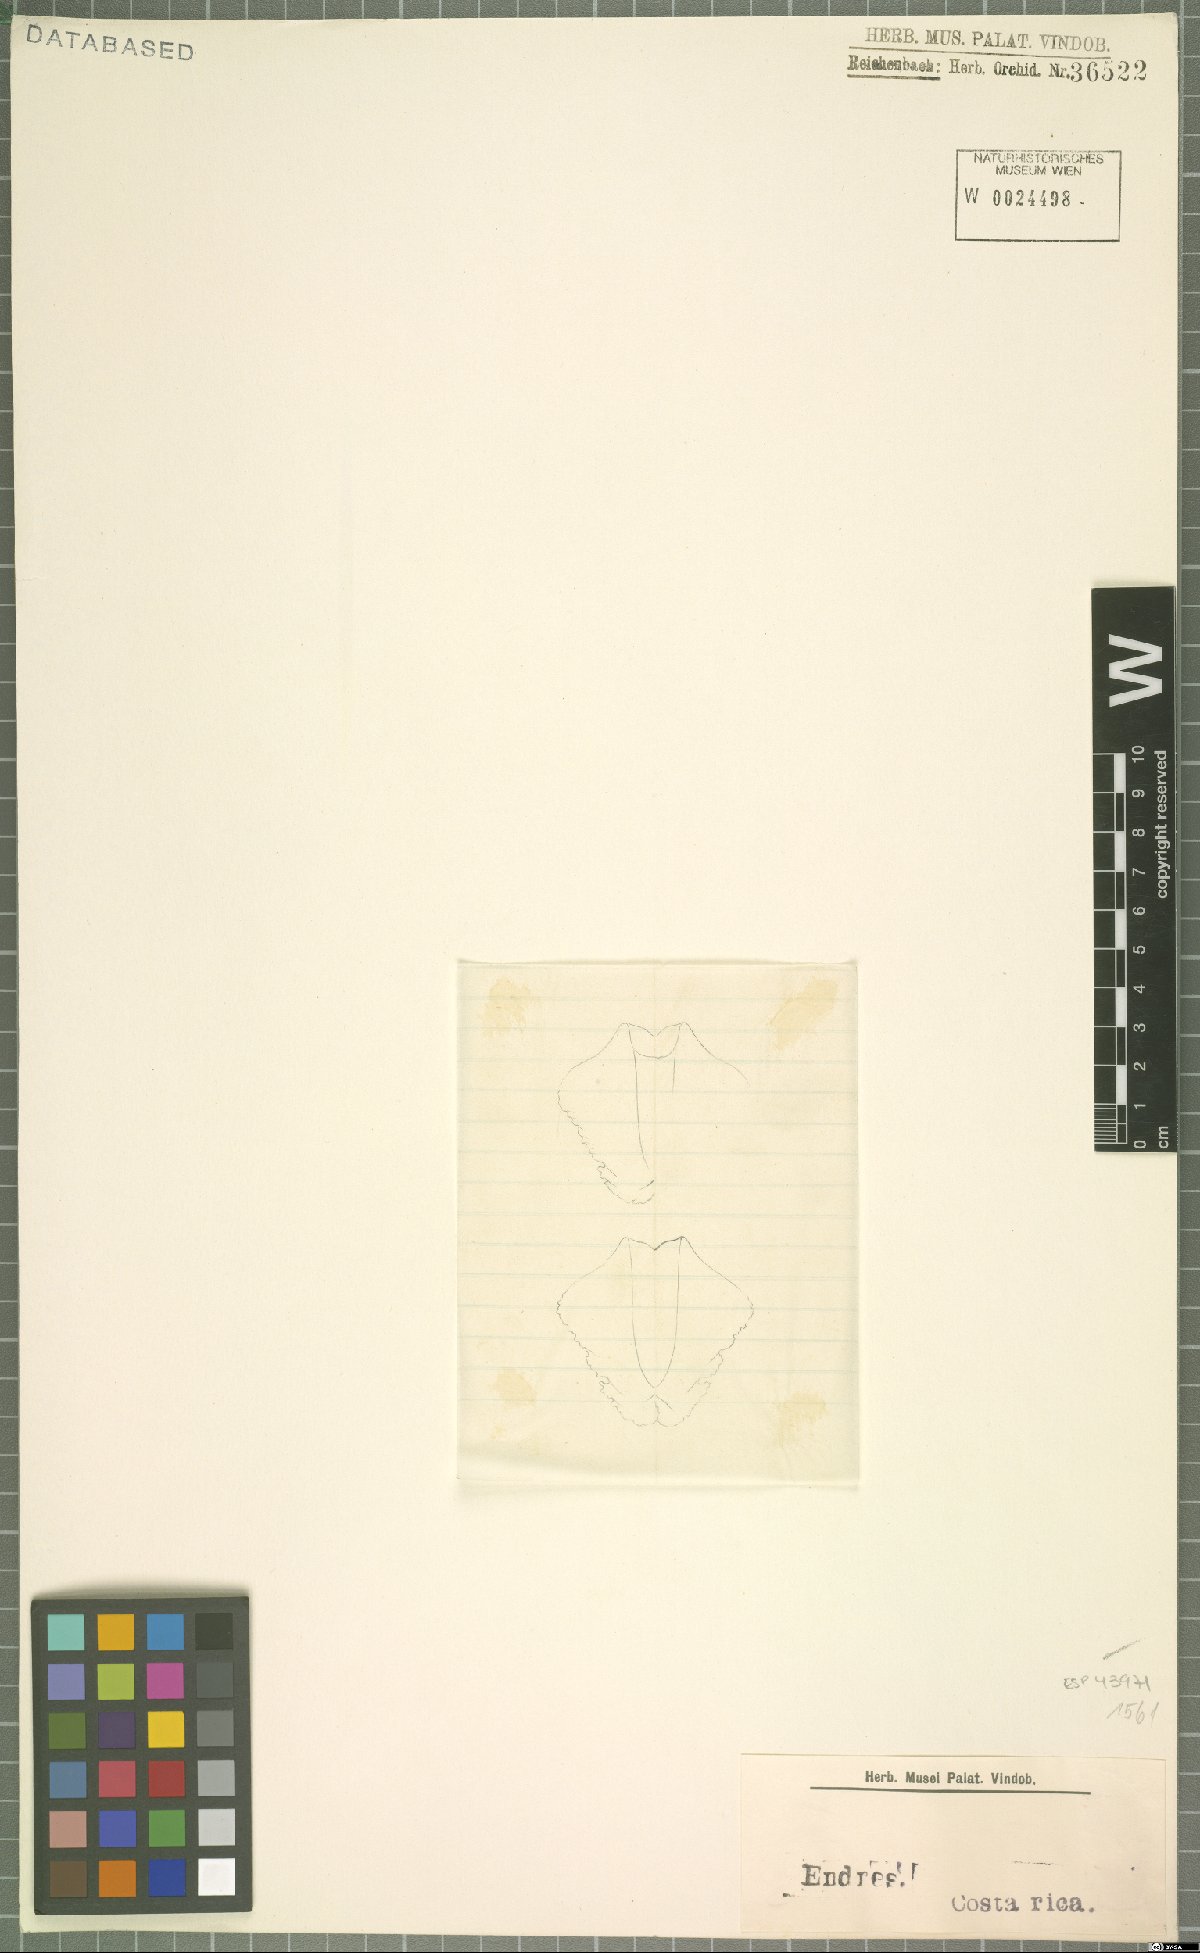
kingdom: Plantae
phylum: Tracheophyta
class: Liliopsida
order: Asparagales
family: Orchidaceae
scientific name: Orchidaceae
